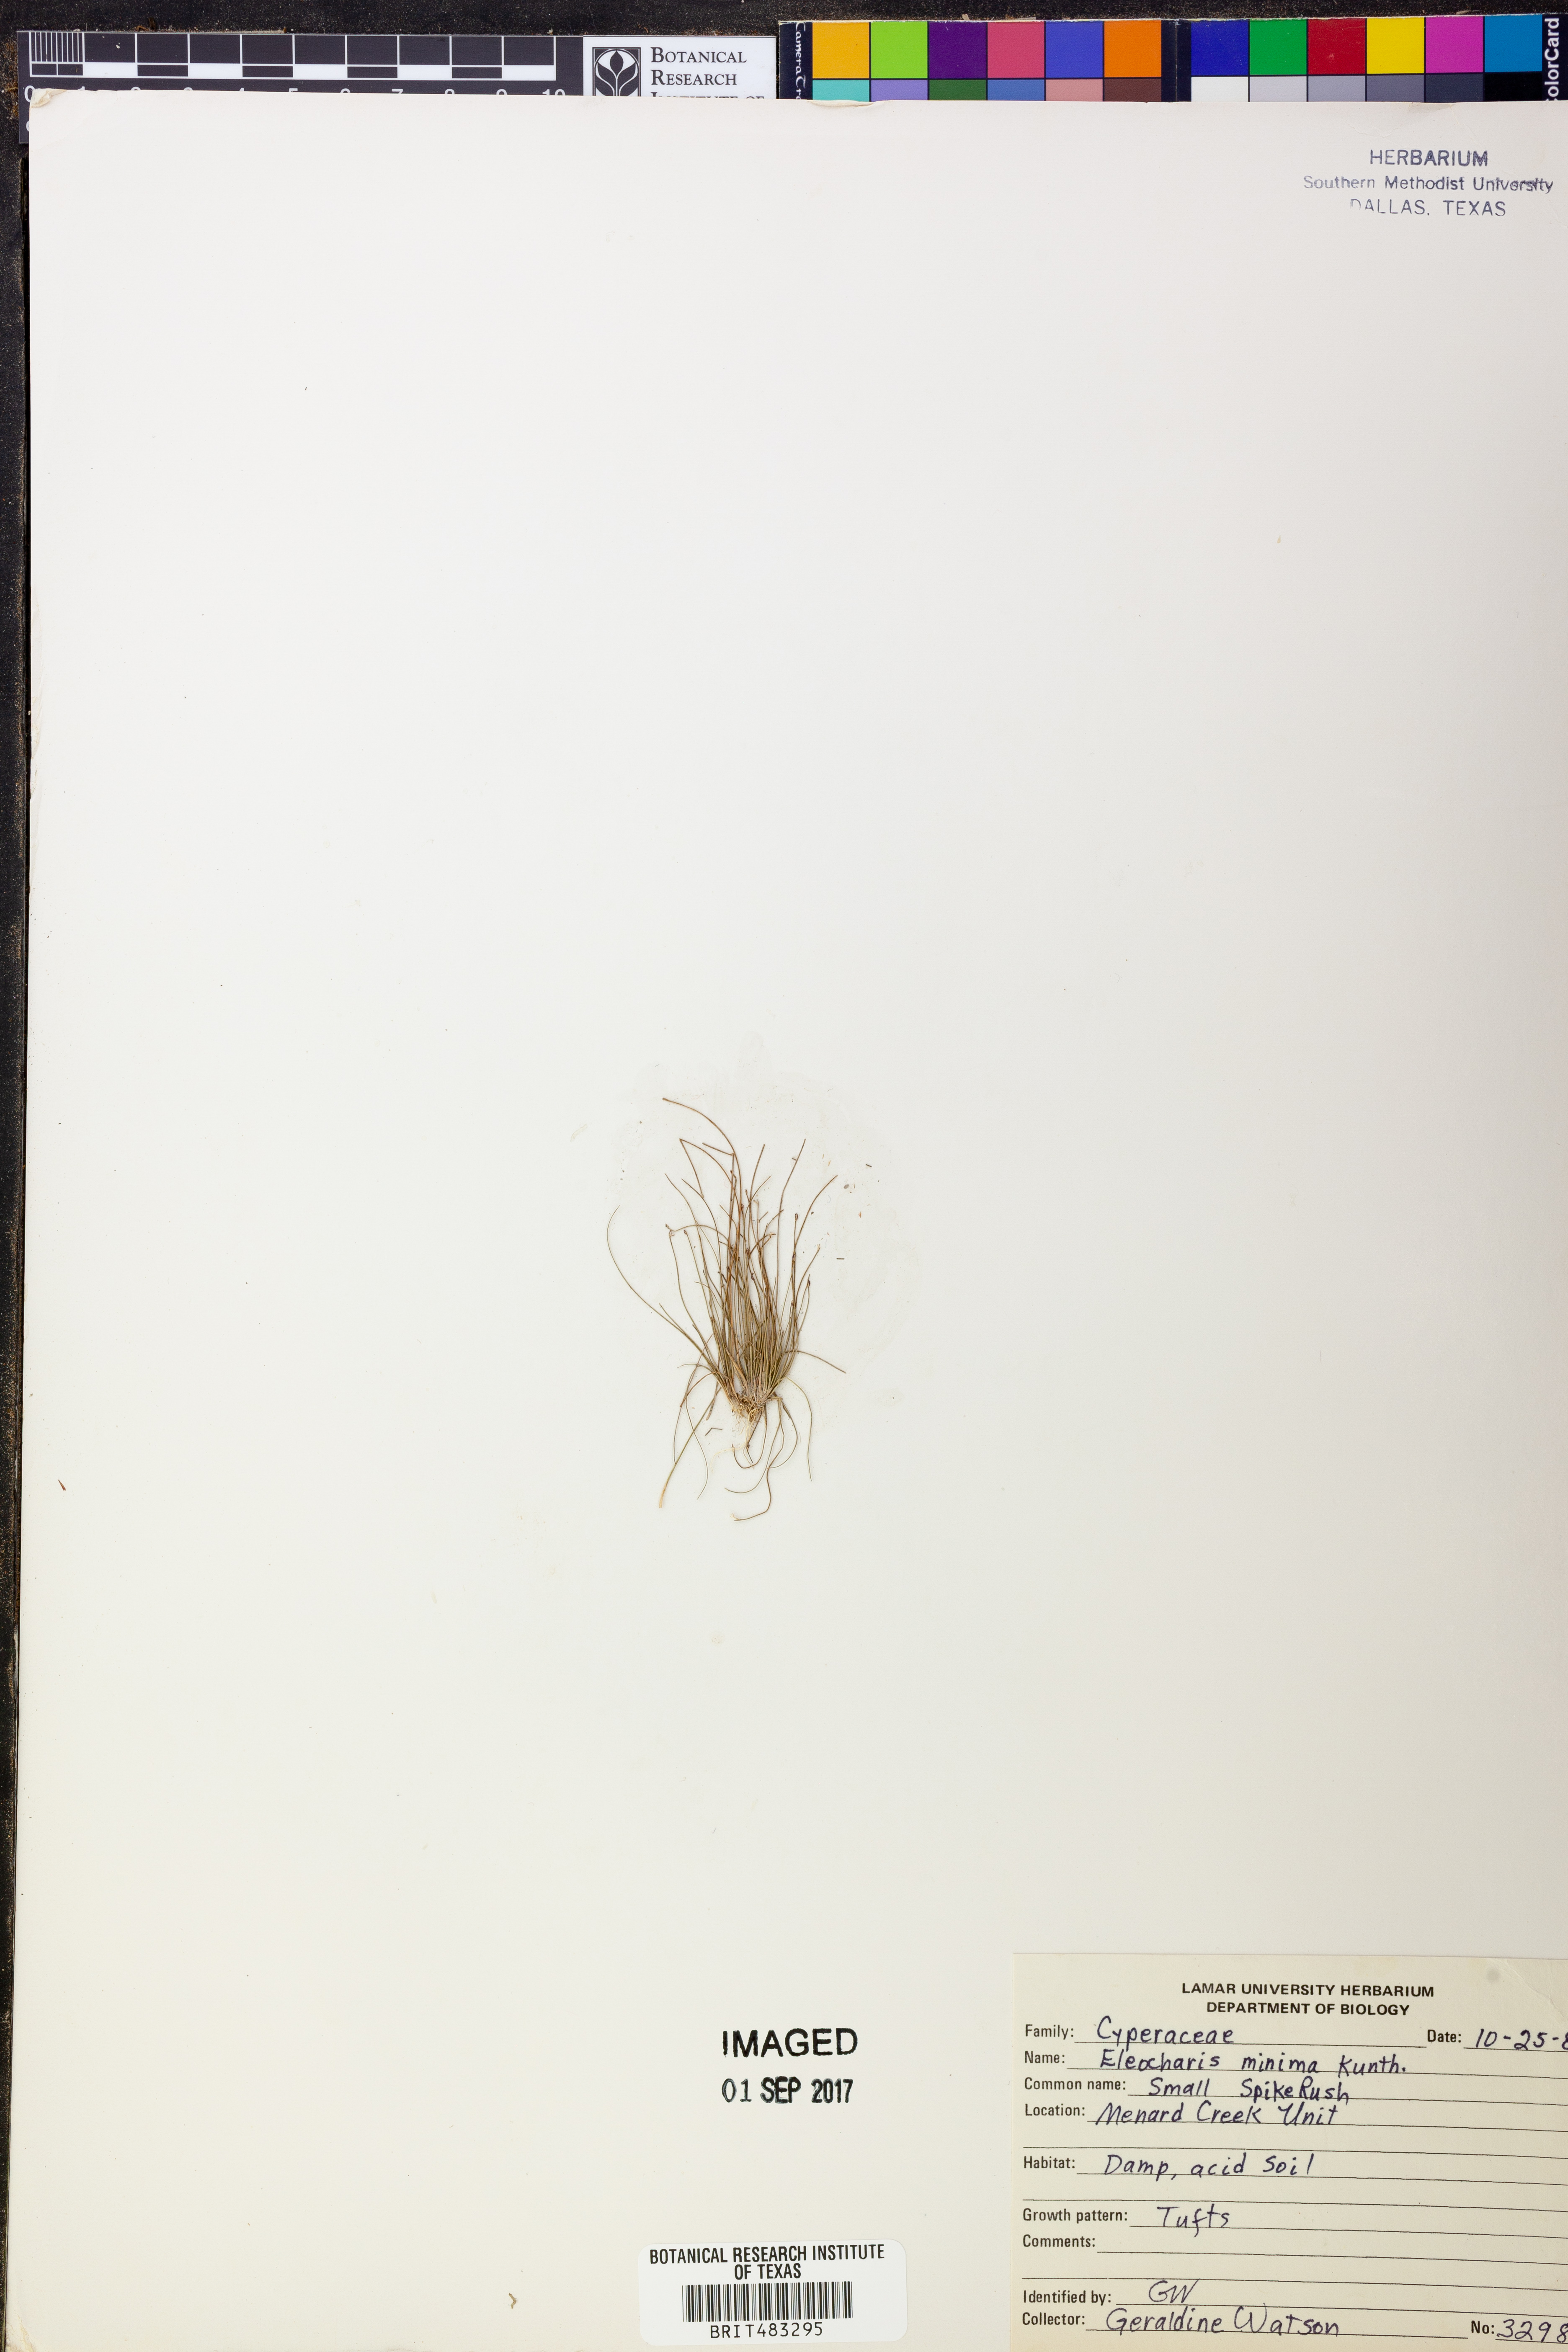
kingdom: Plantae
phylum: Tracheophyta
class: Liliopsida
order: Poales
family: Cyperaceae
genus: Eleocharis
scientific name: Eleocharis minima
